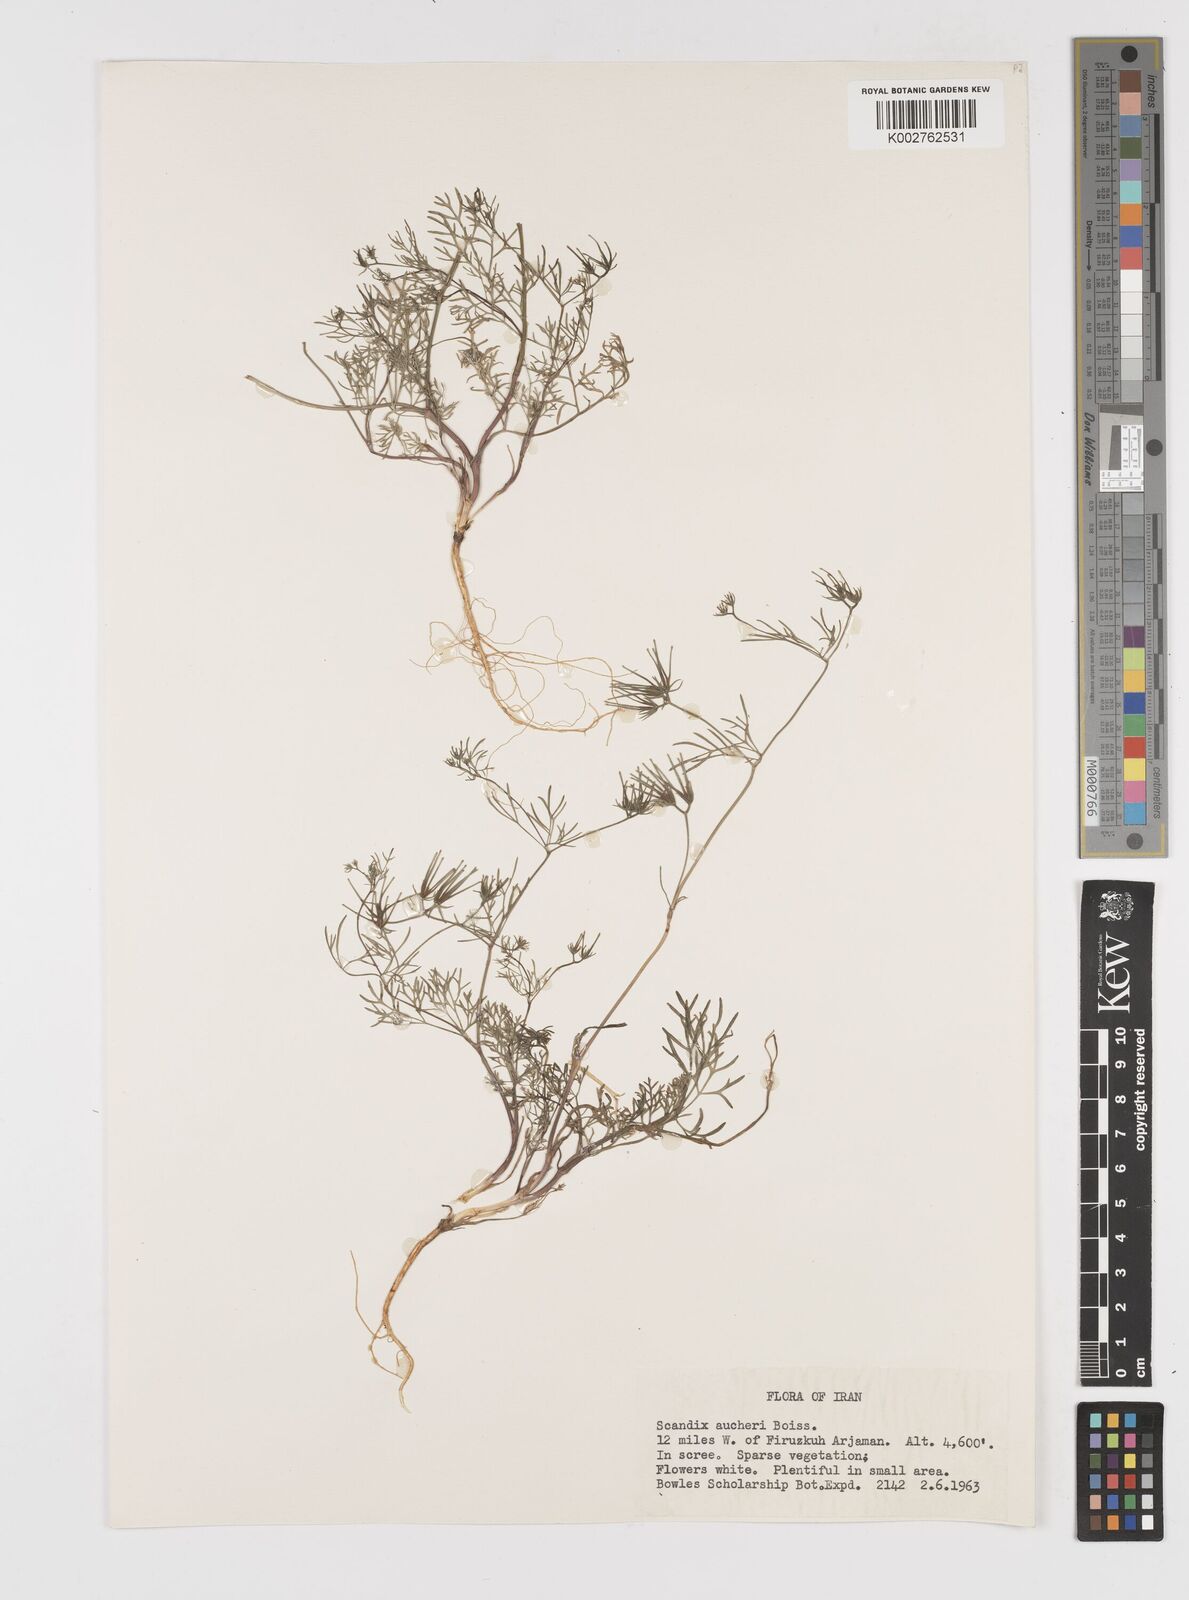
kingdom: Plantae
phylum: Tracheophyta
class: Magnoliopsida
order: Apiales
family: Apiaceae
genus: Scandix
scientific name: Scandix aucheri
